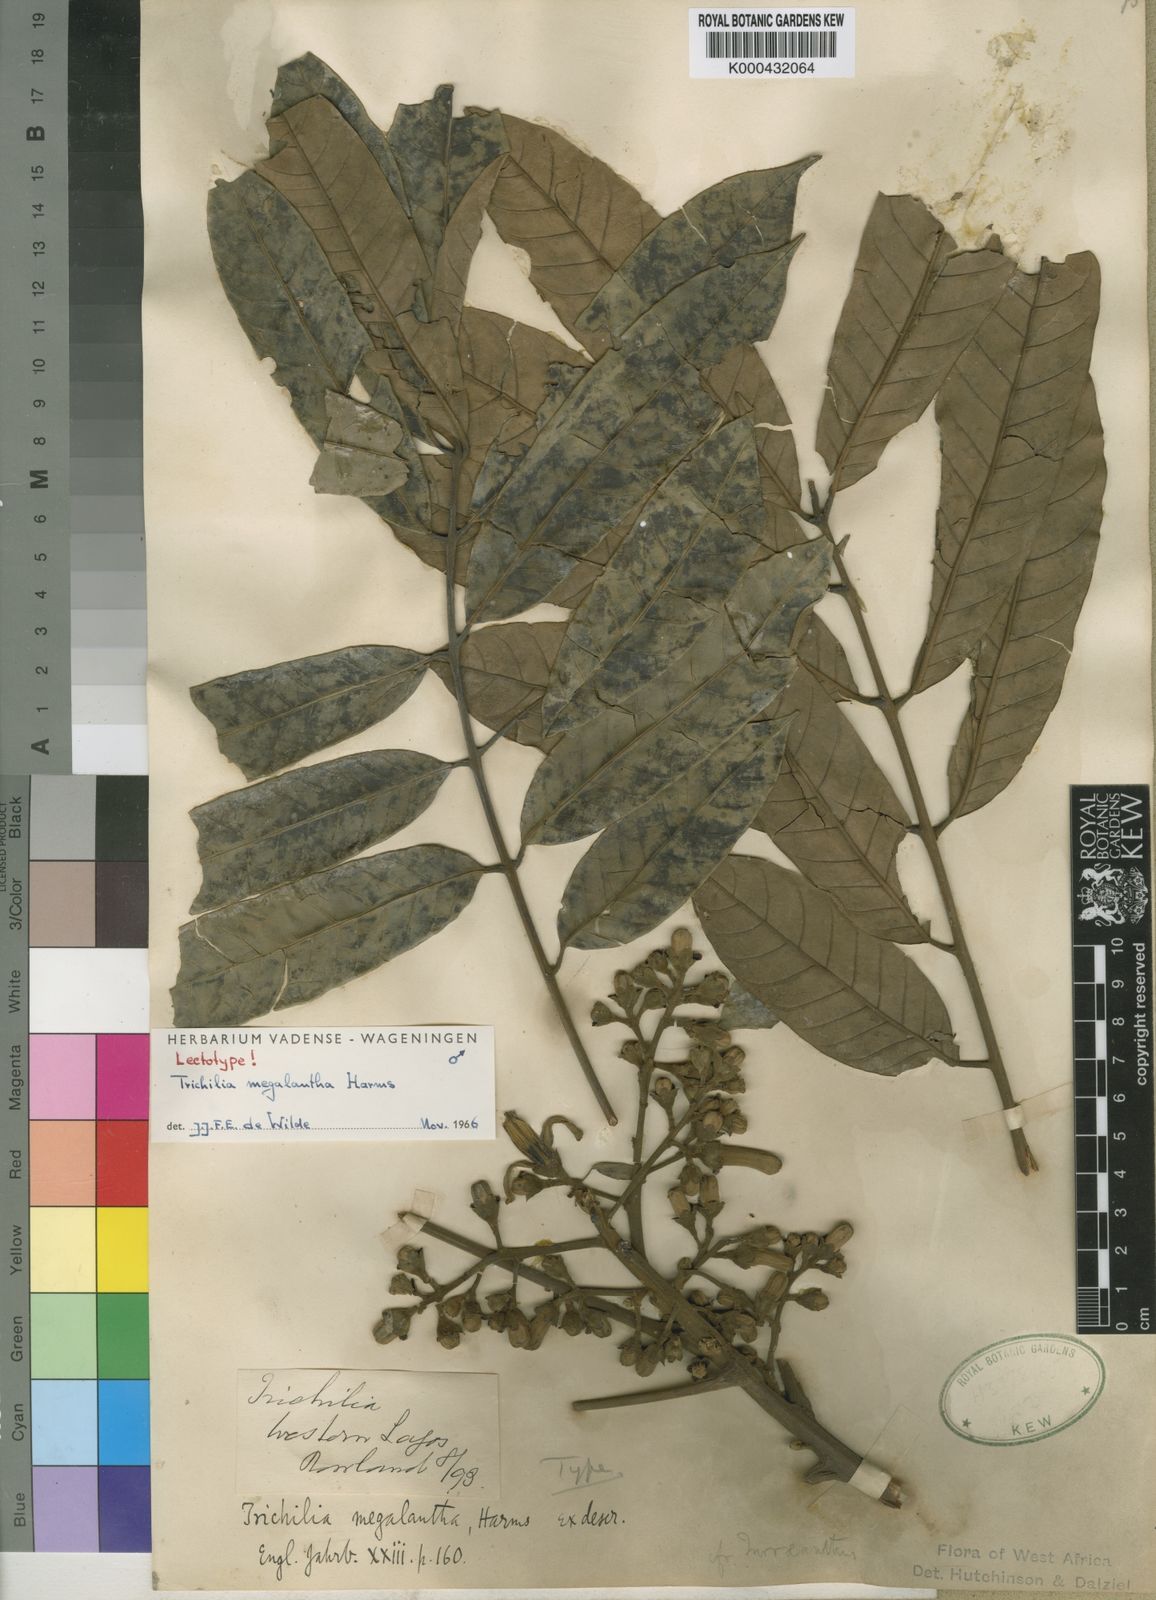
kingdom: Plantae
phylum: Tracheophyta
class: Magnoliopsida
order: Sapindales
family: Meliaceae
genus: Trichilia
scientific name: Trichilia megalantha
